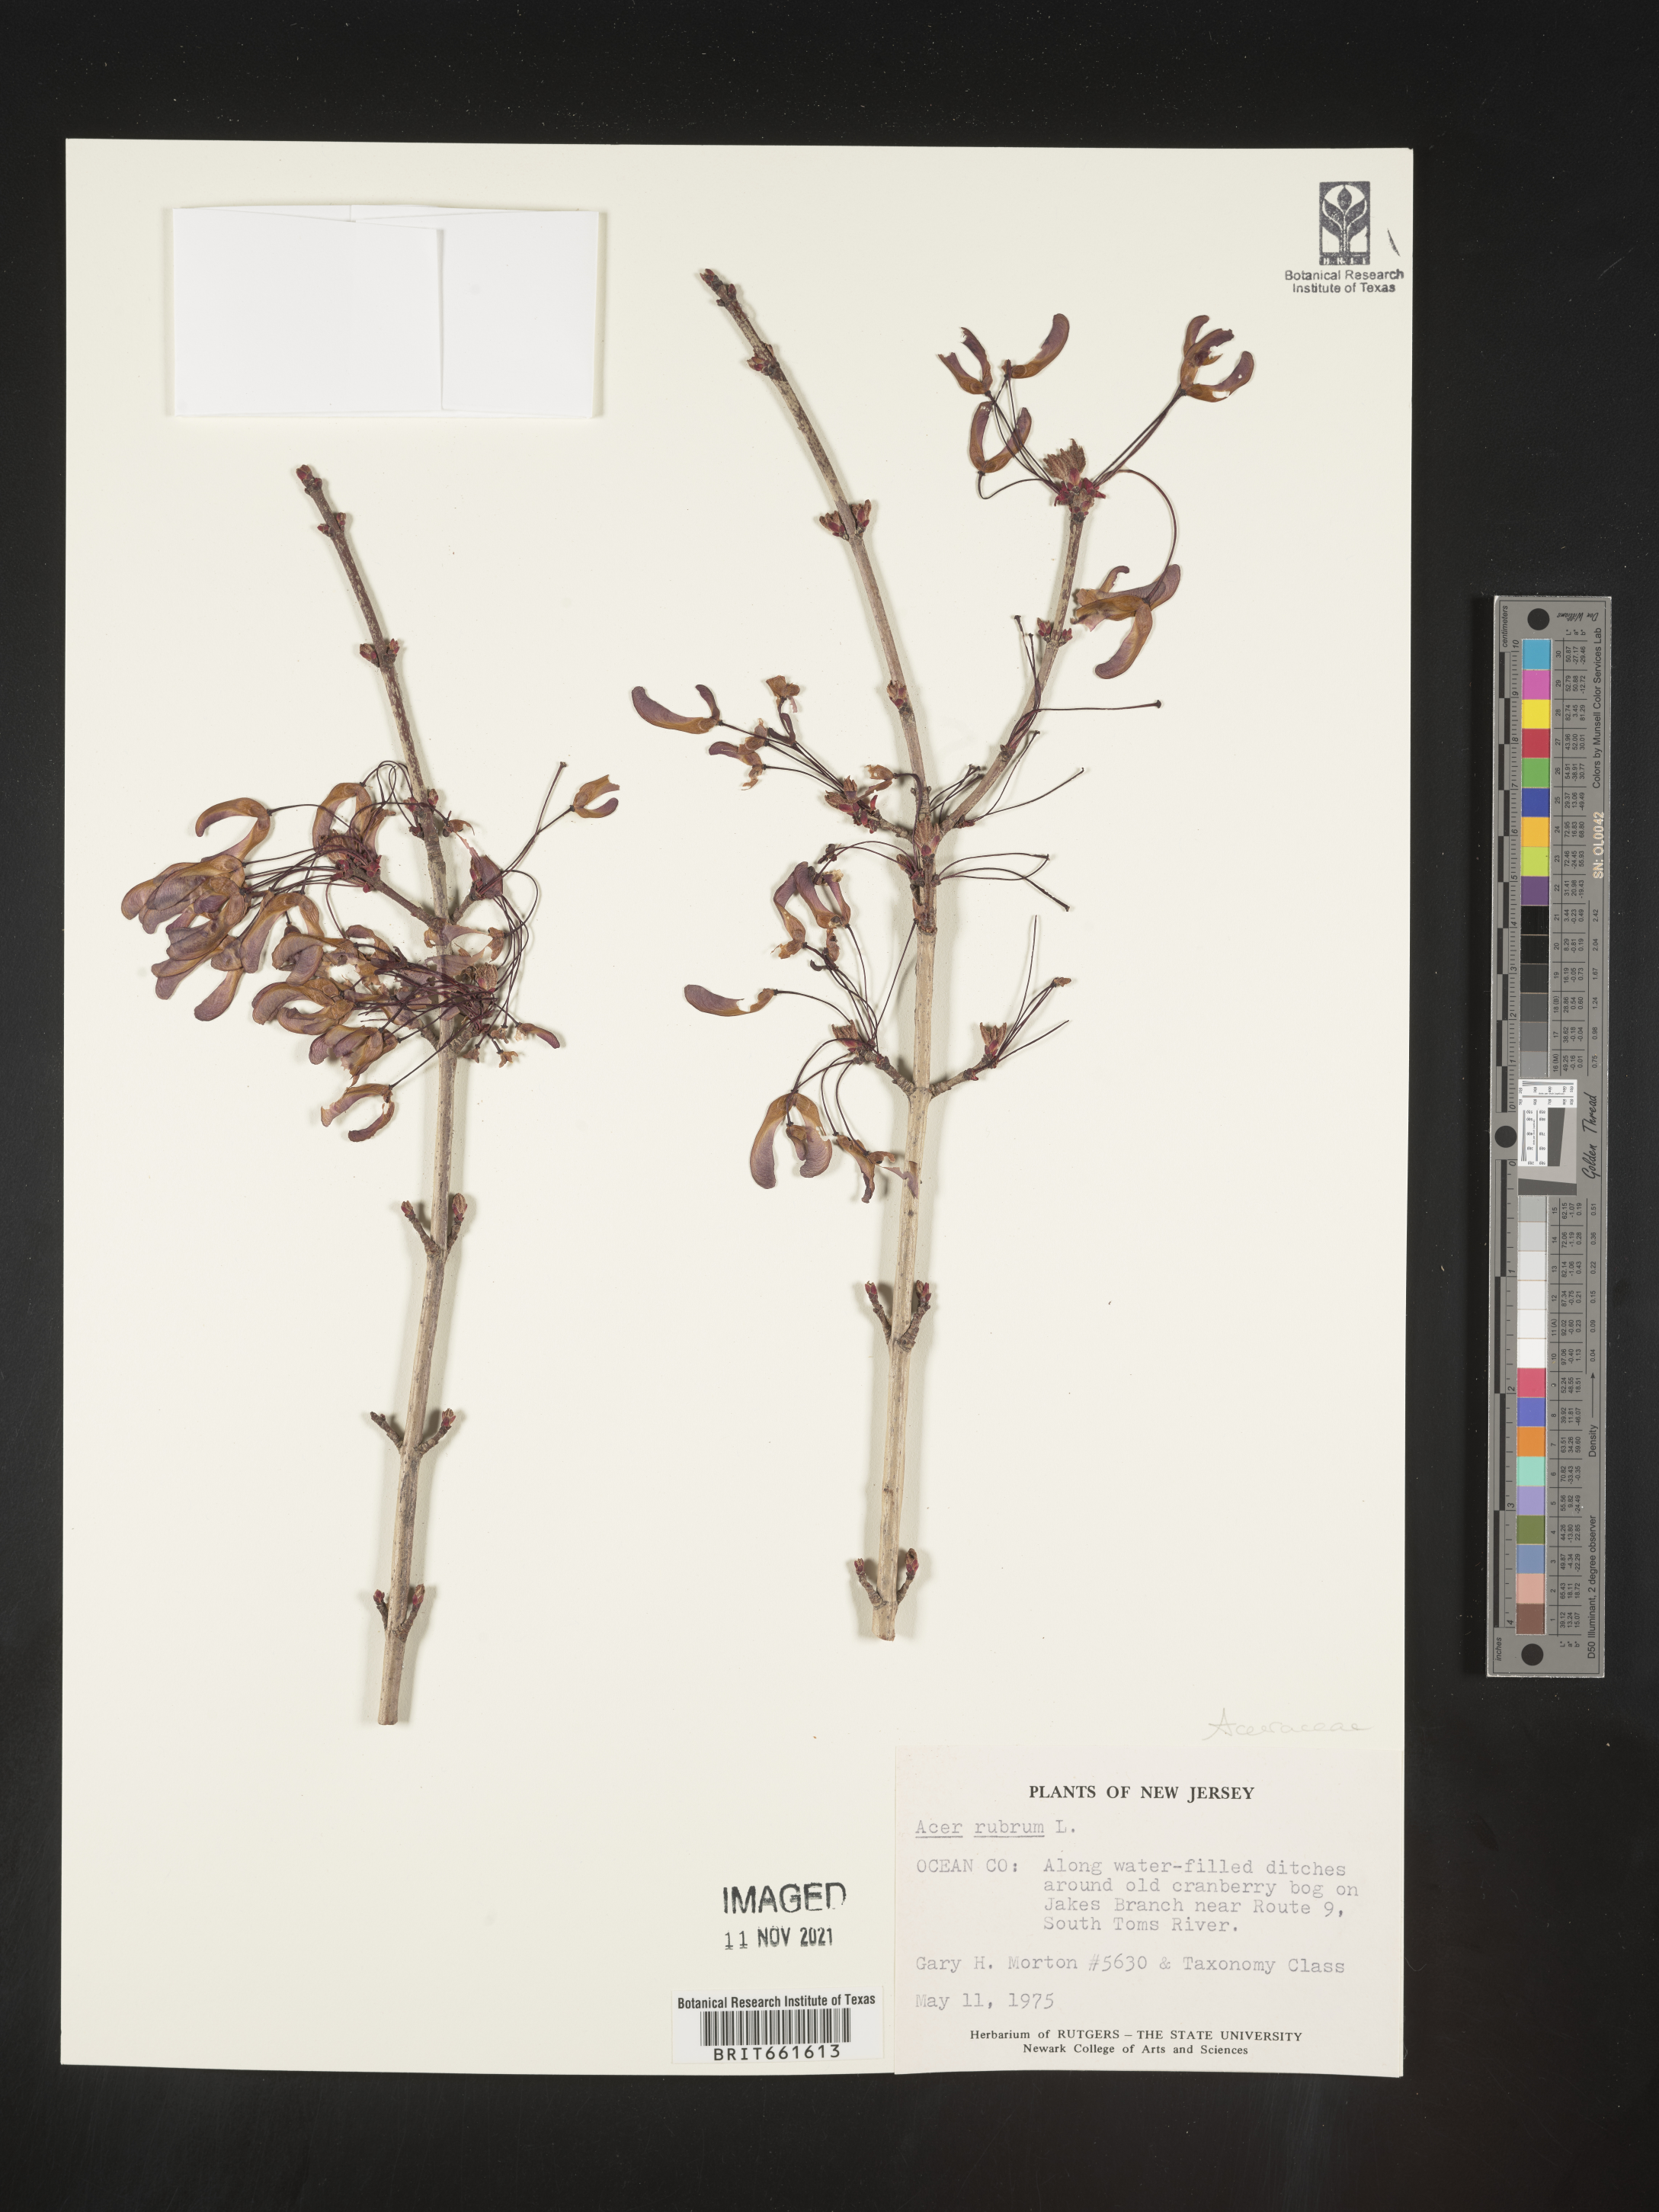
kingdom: Plantae
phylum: Tracheophyta
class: Magnoliopsida
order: Sapindales
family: Sapindaceae
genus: Acer
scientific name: Acer rubrum
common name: Red maple
